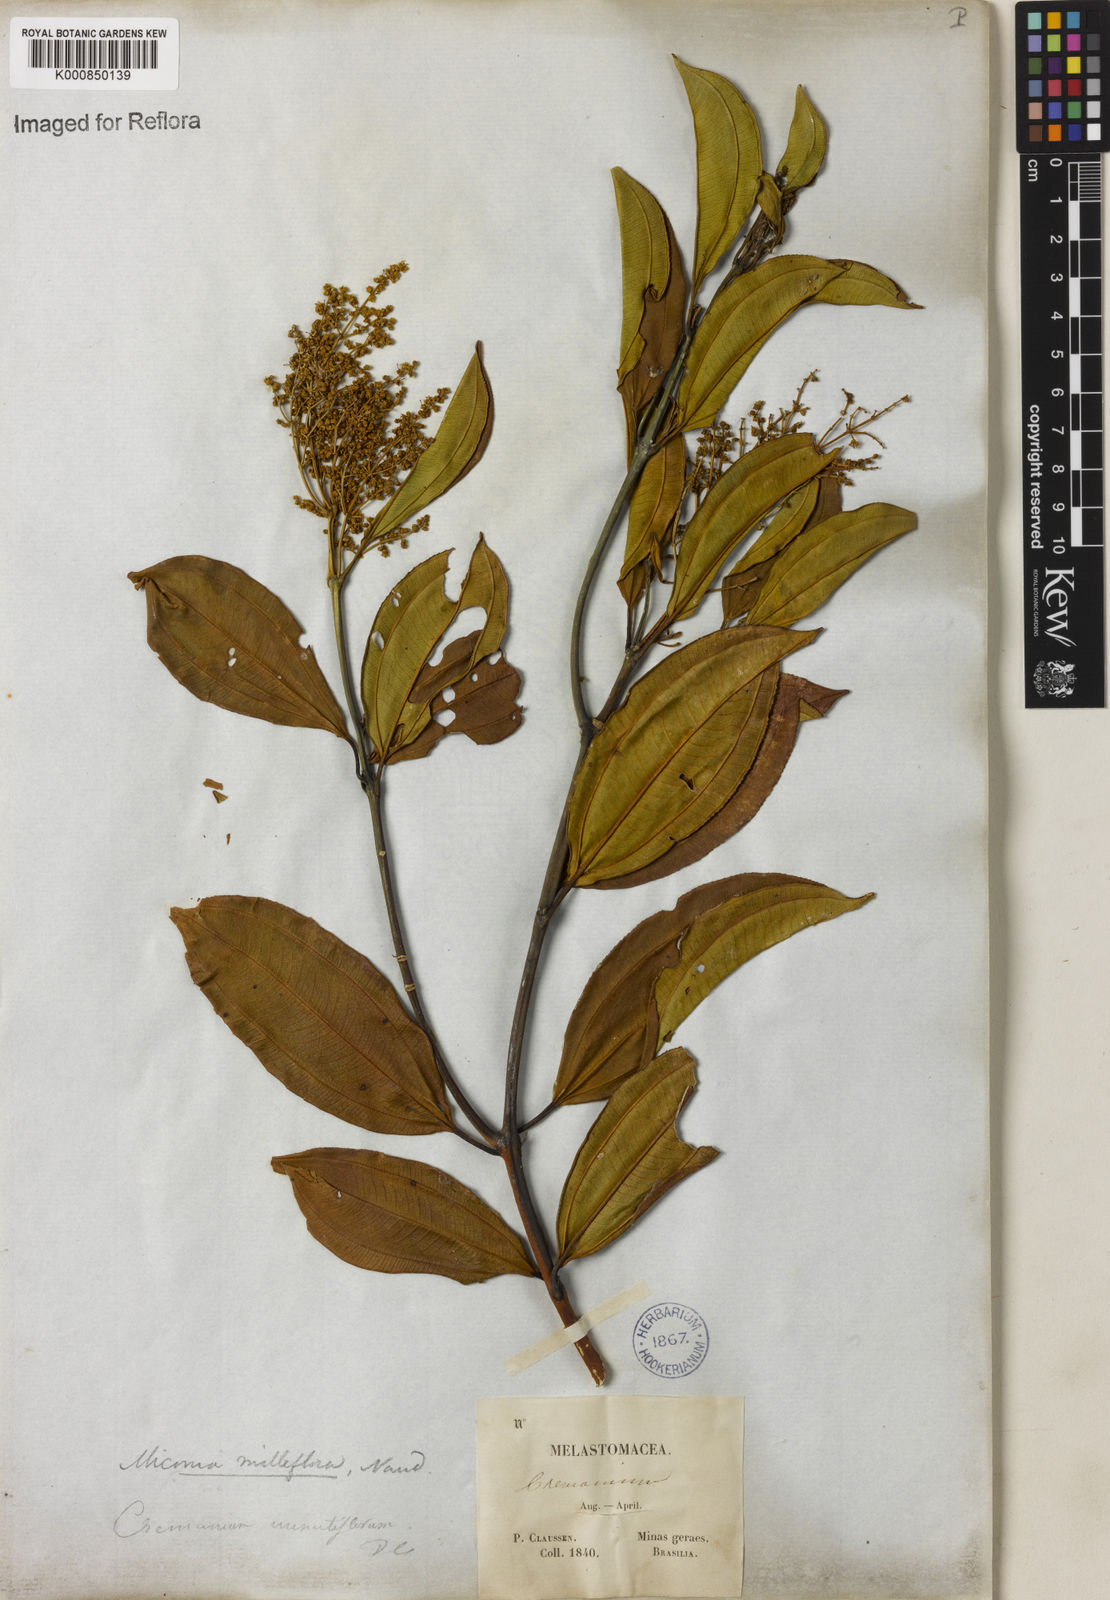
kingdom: Plantae
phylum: Tracheophyta
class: Magnoliopsida
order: Myrtales
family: Melastomataceae
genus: Miconia
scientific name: Miconia
